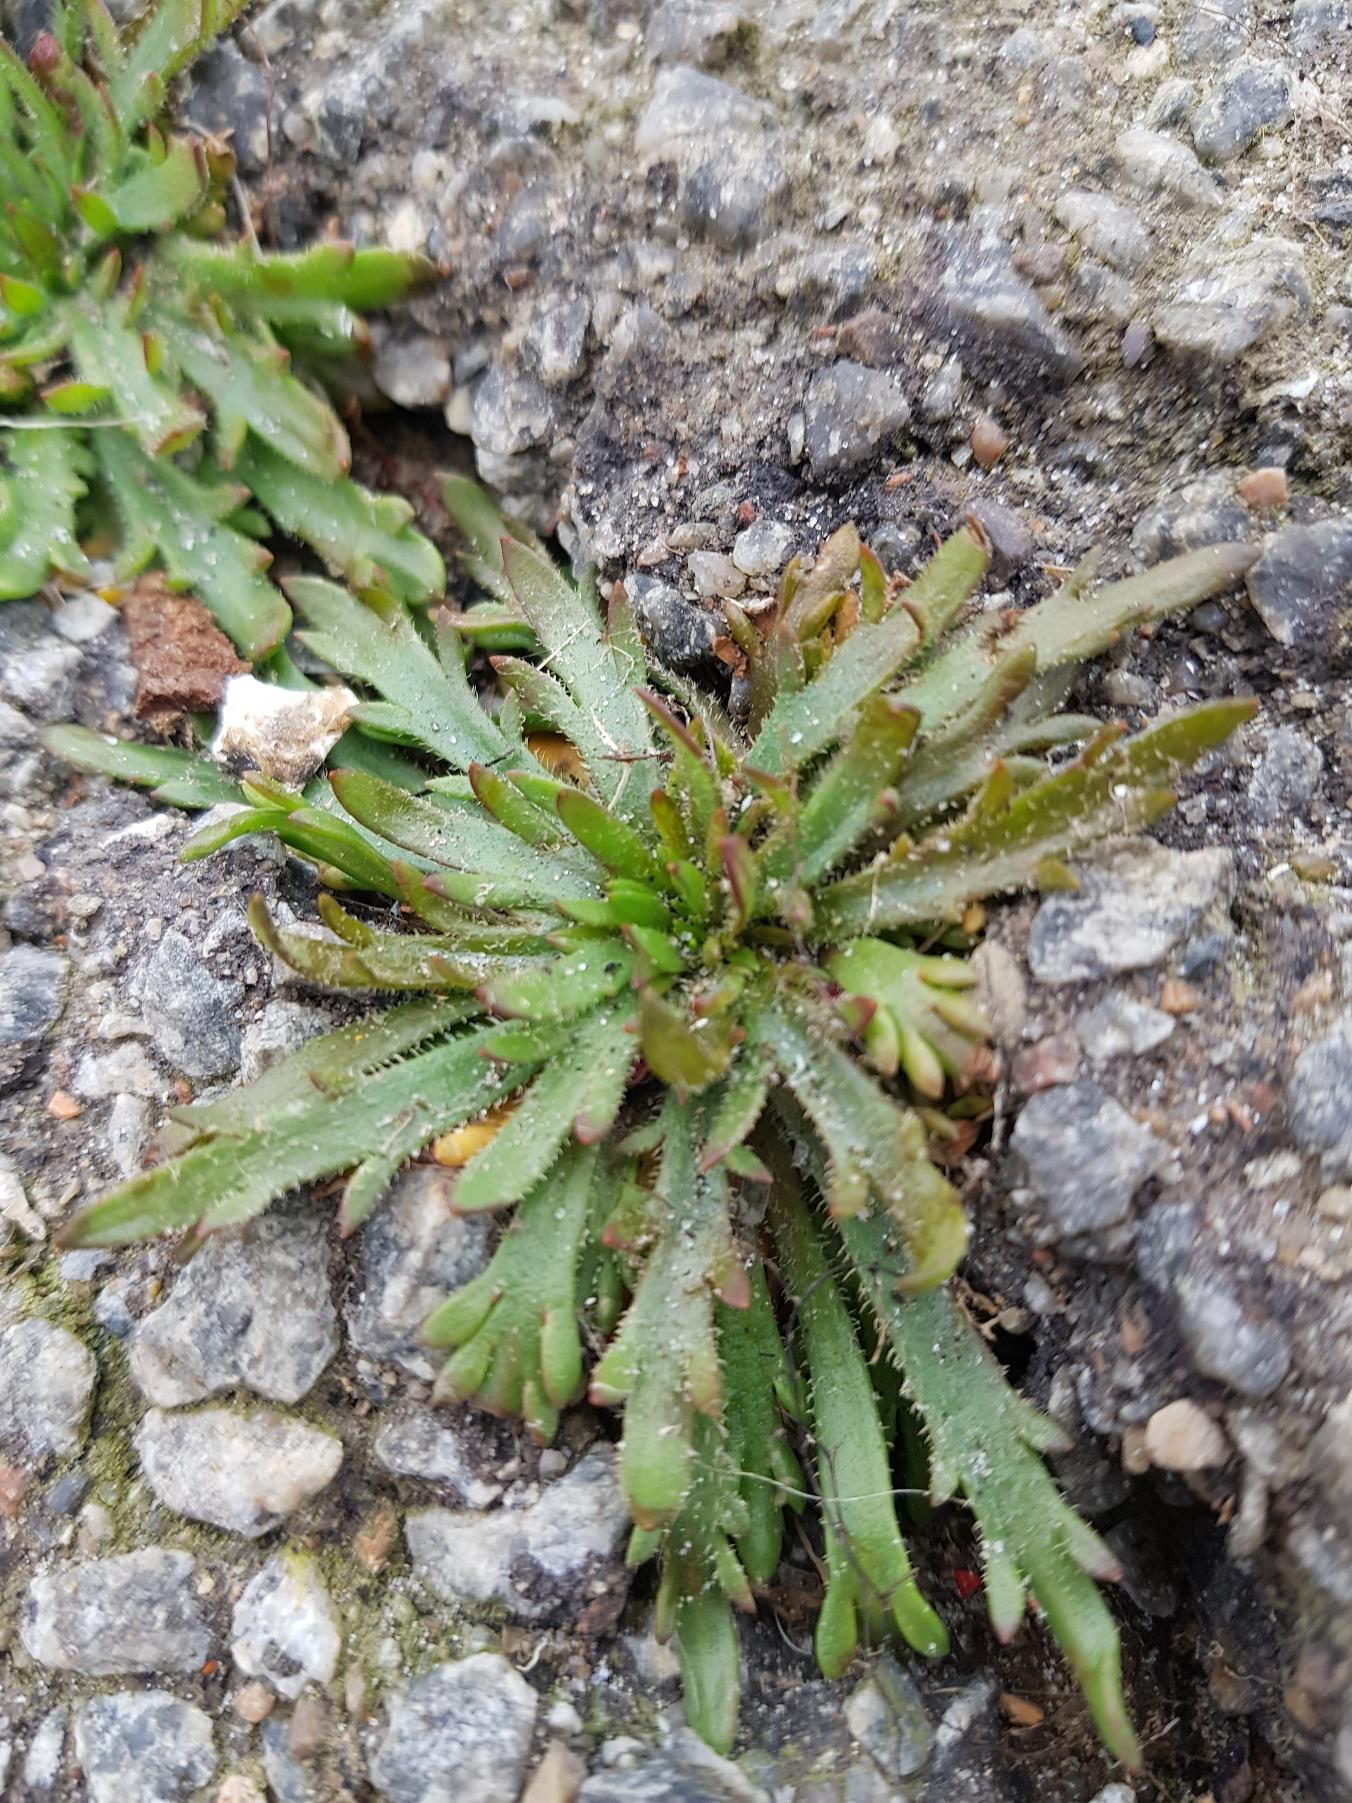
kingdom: Plantae
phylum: Tracheophyta
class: Magnoliopsida
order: Lamiales
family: Plantaginaceae
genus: Plantago
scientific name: Plantago coronopus
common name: Fliget vejbred
